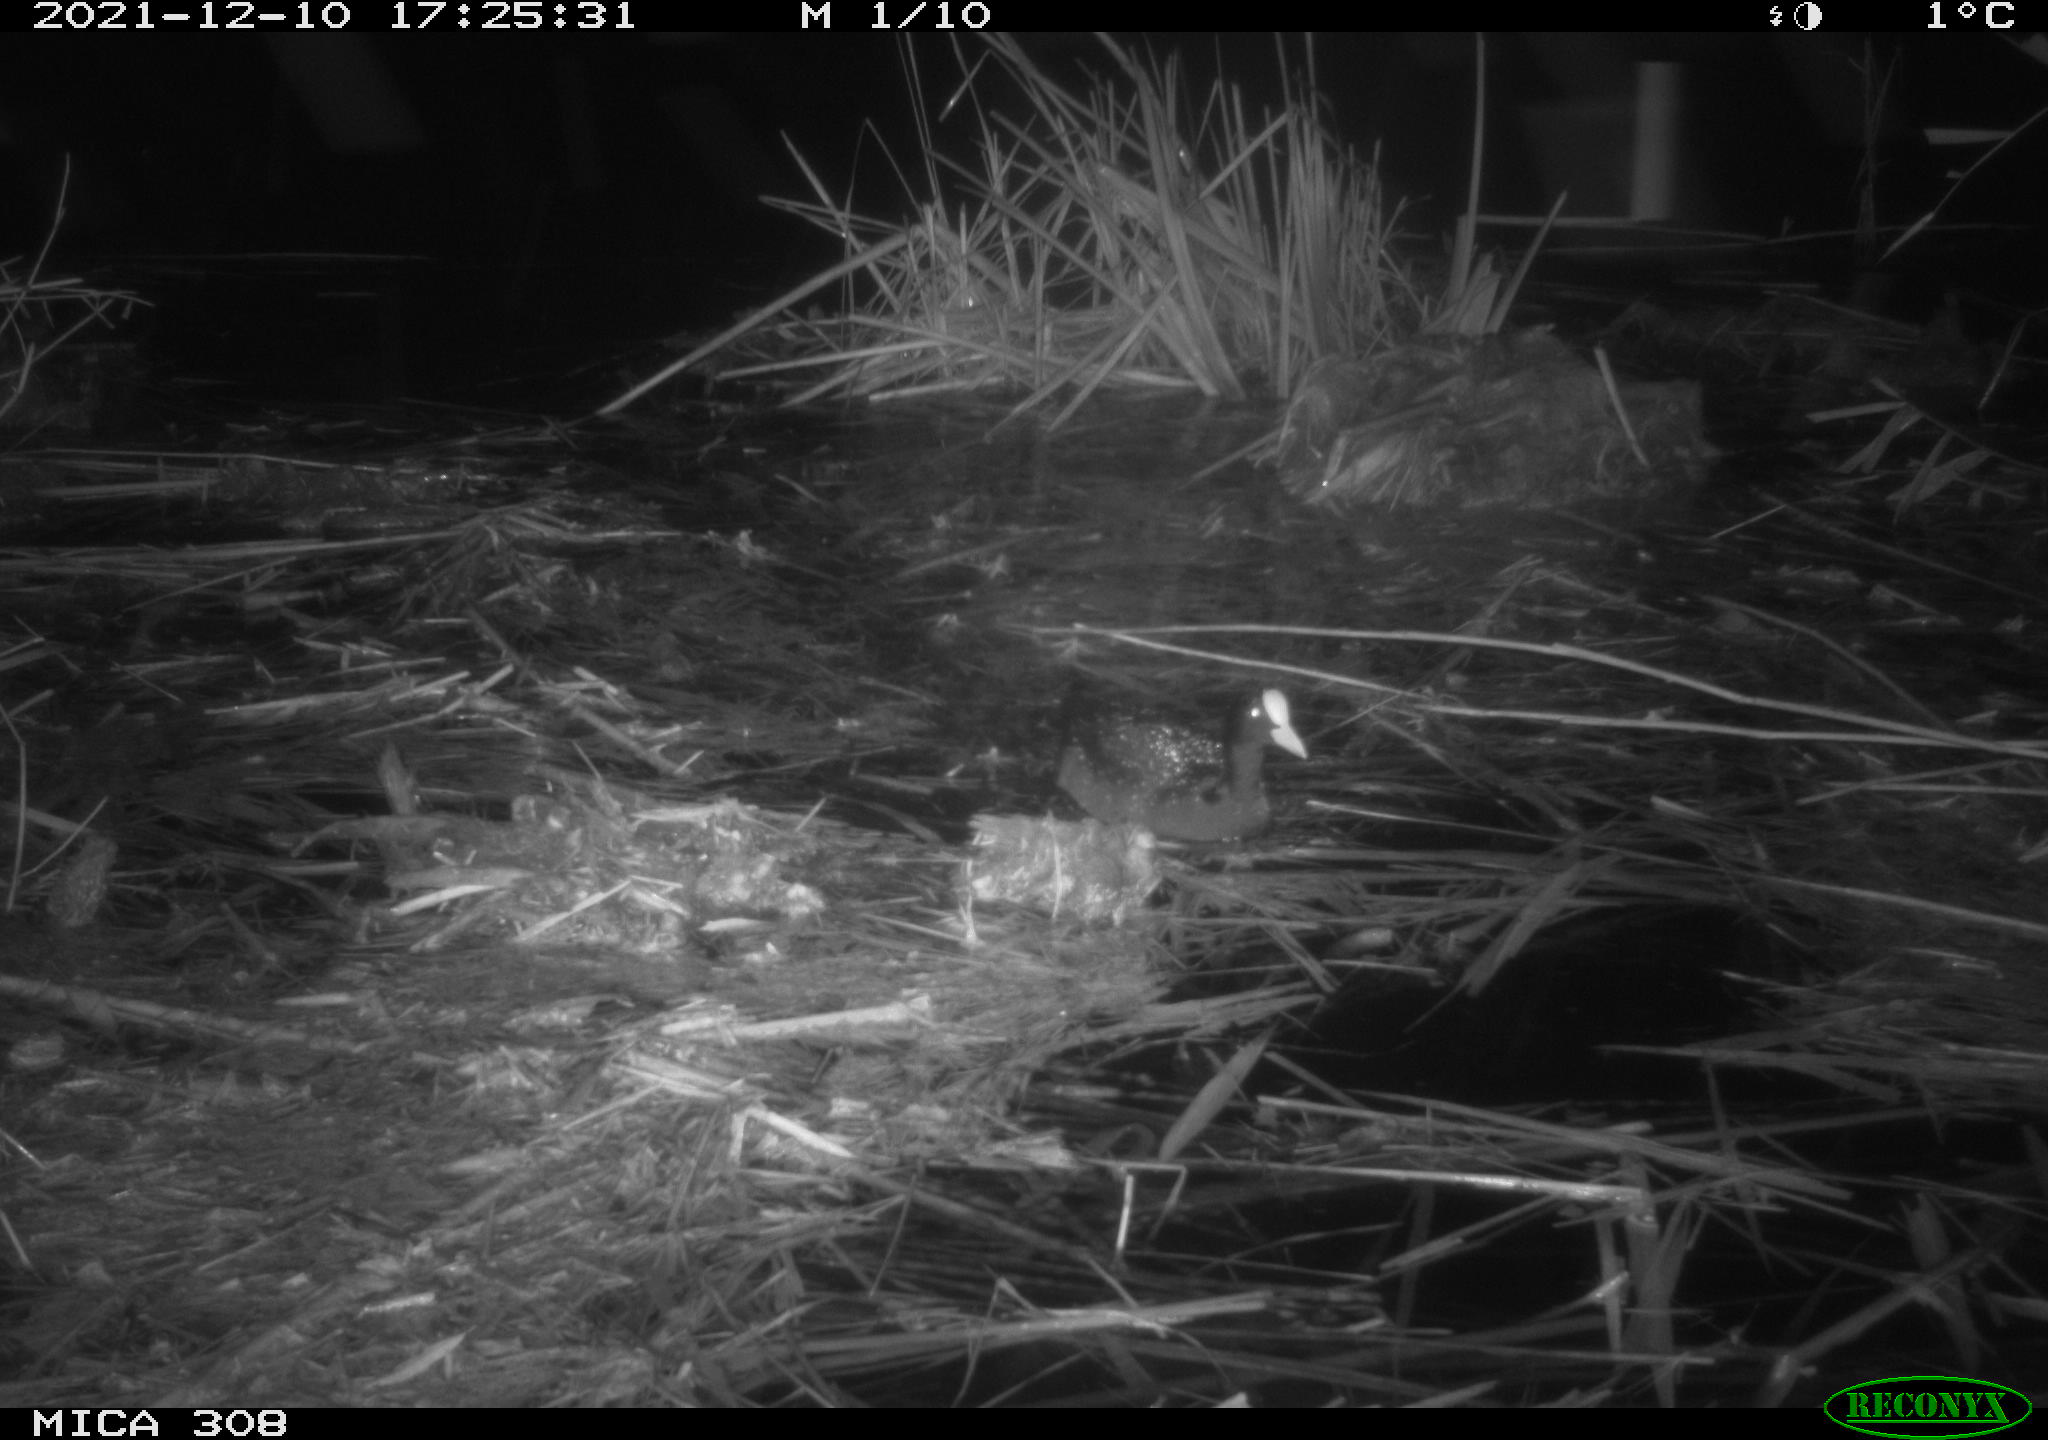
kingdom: Animalia
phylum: Chordata
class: Aves
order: Gruiformes
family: Rallidae
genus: Fulica
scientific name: Fulica atra
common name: Eurasian coot
